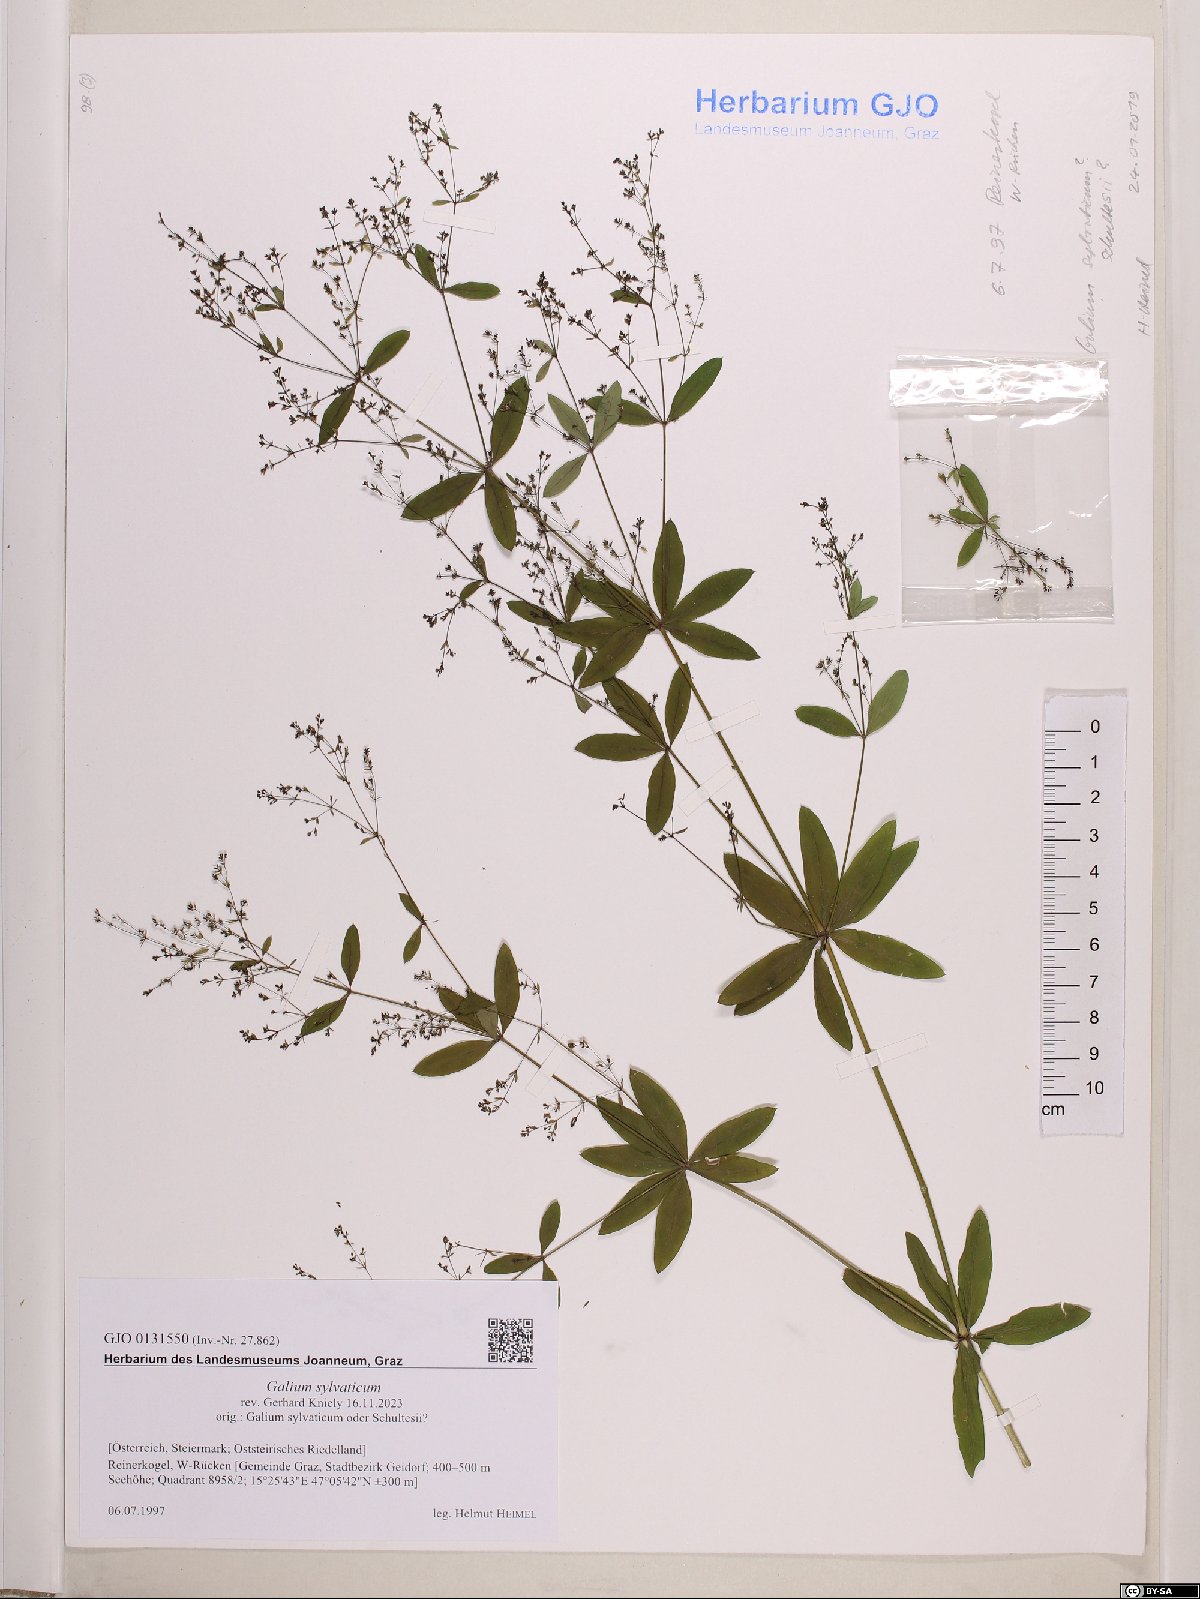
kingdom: Plantae
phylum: Tracheophyta
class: Magnoliopsida
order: Gentianales
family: Rubiaceae
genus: Galium
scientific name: Galium sylvaticum
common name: Wood bedstraw
